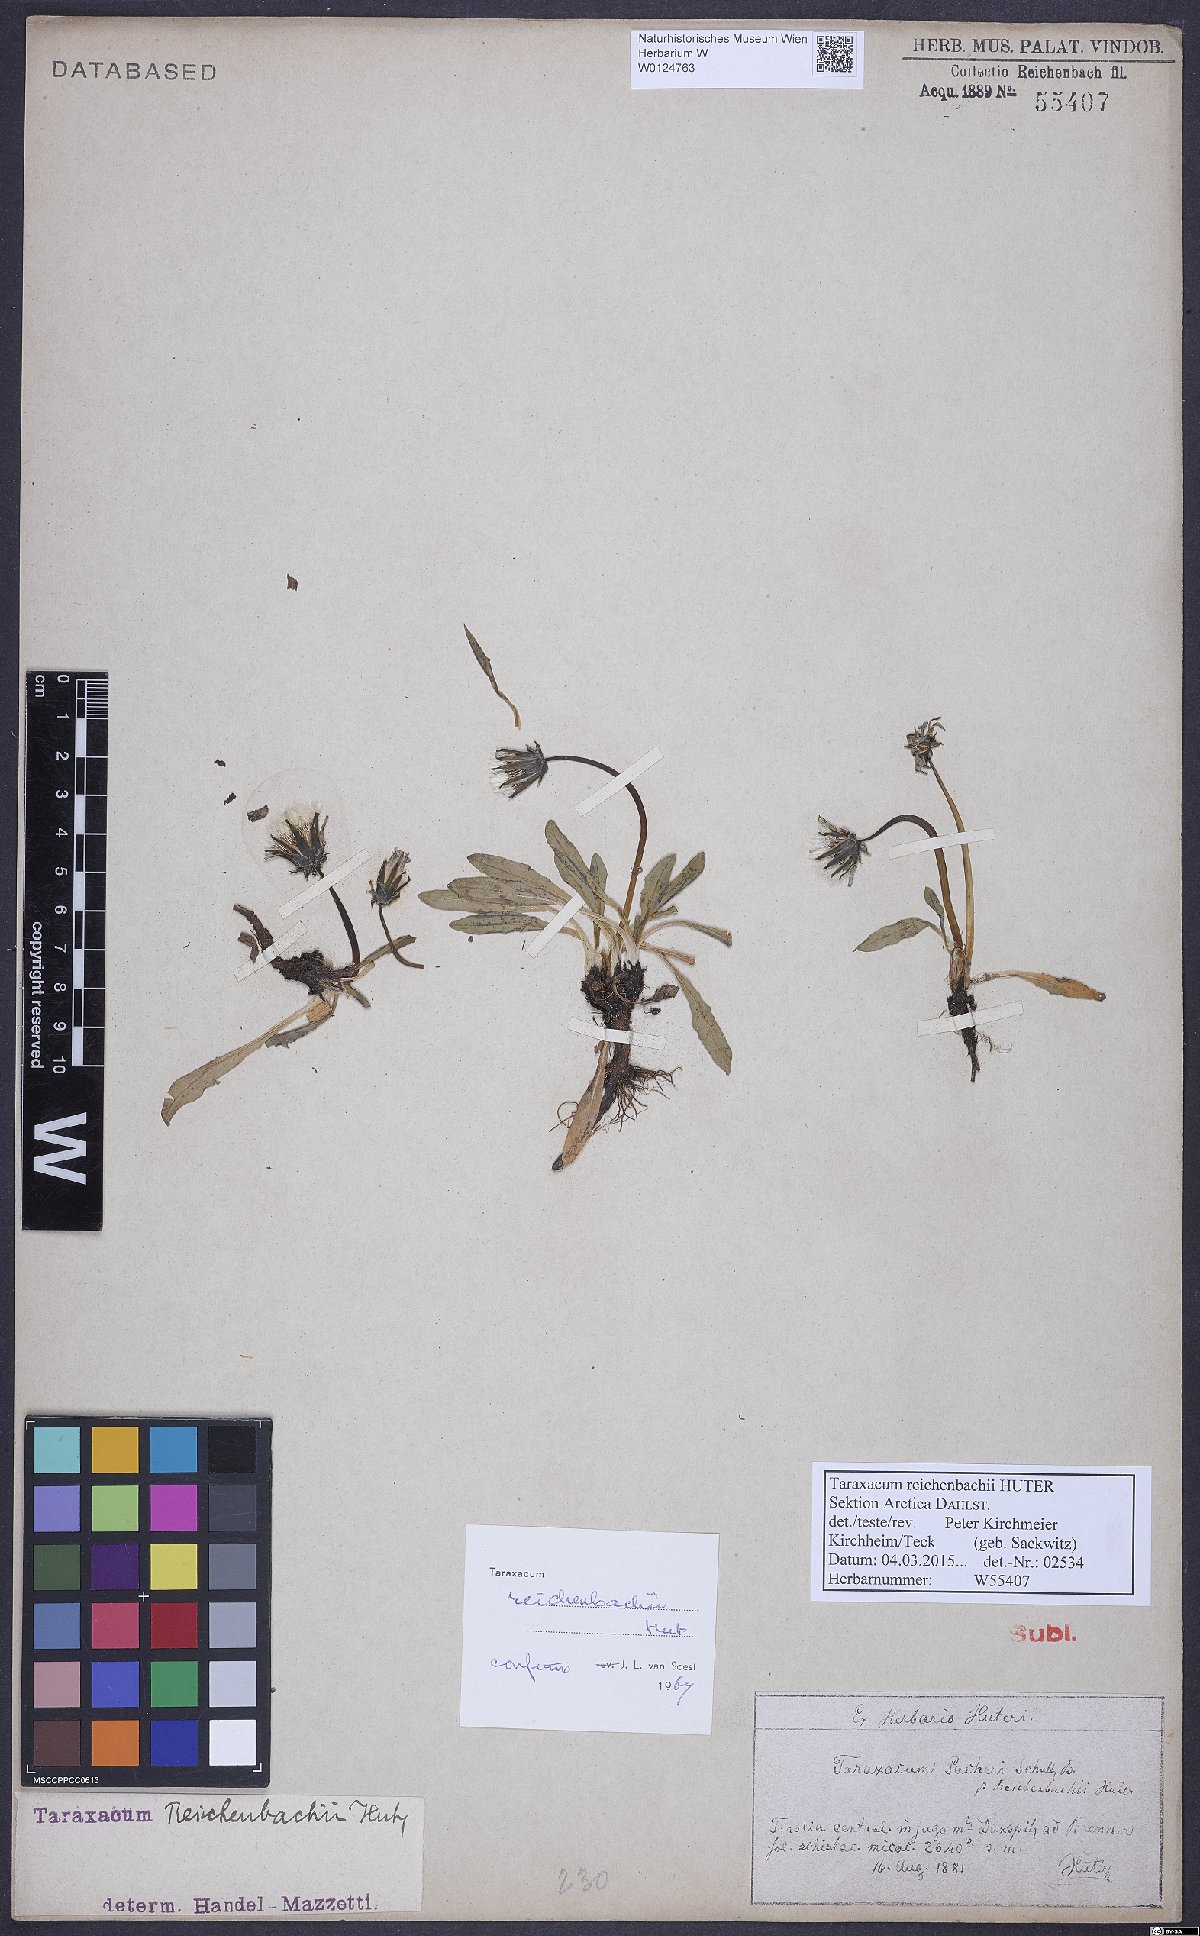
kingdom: Plantae
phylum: Tracheophyta
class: Magnoliopsida
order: Asterales
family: Asteraceae
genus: Taraxacum
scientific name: Taraxacum reichenbachii
